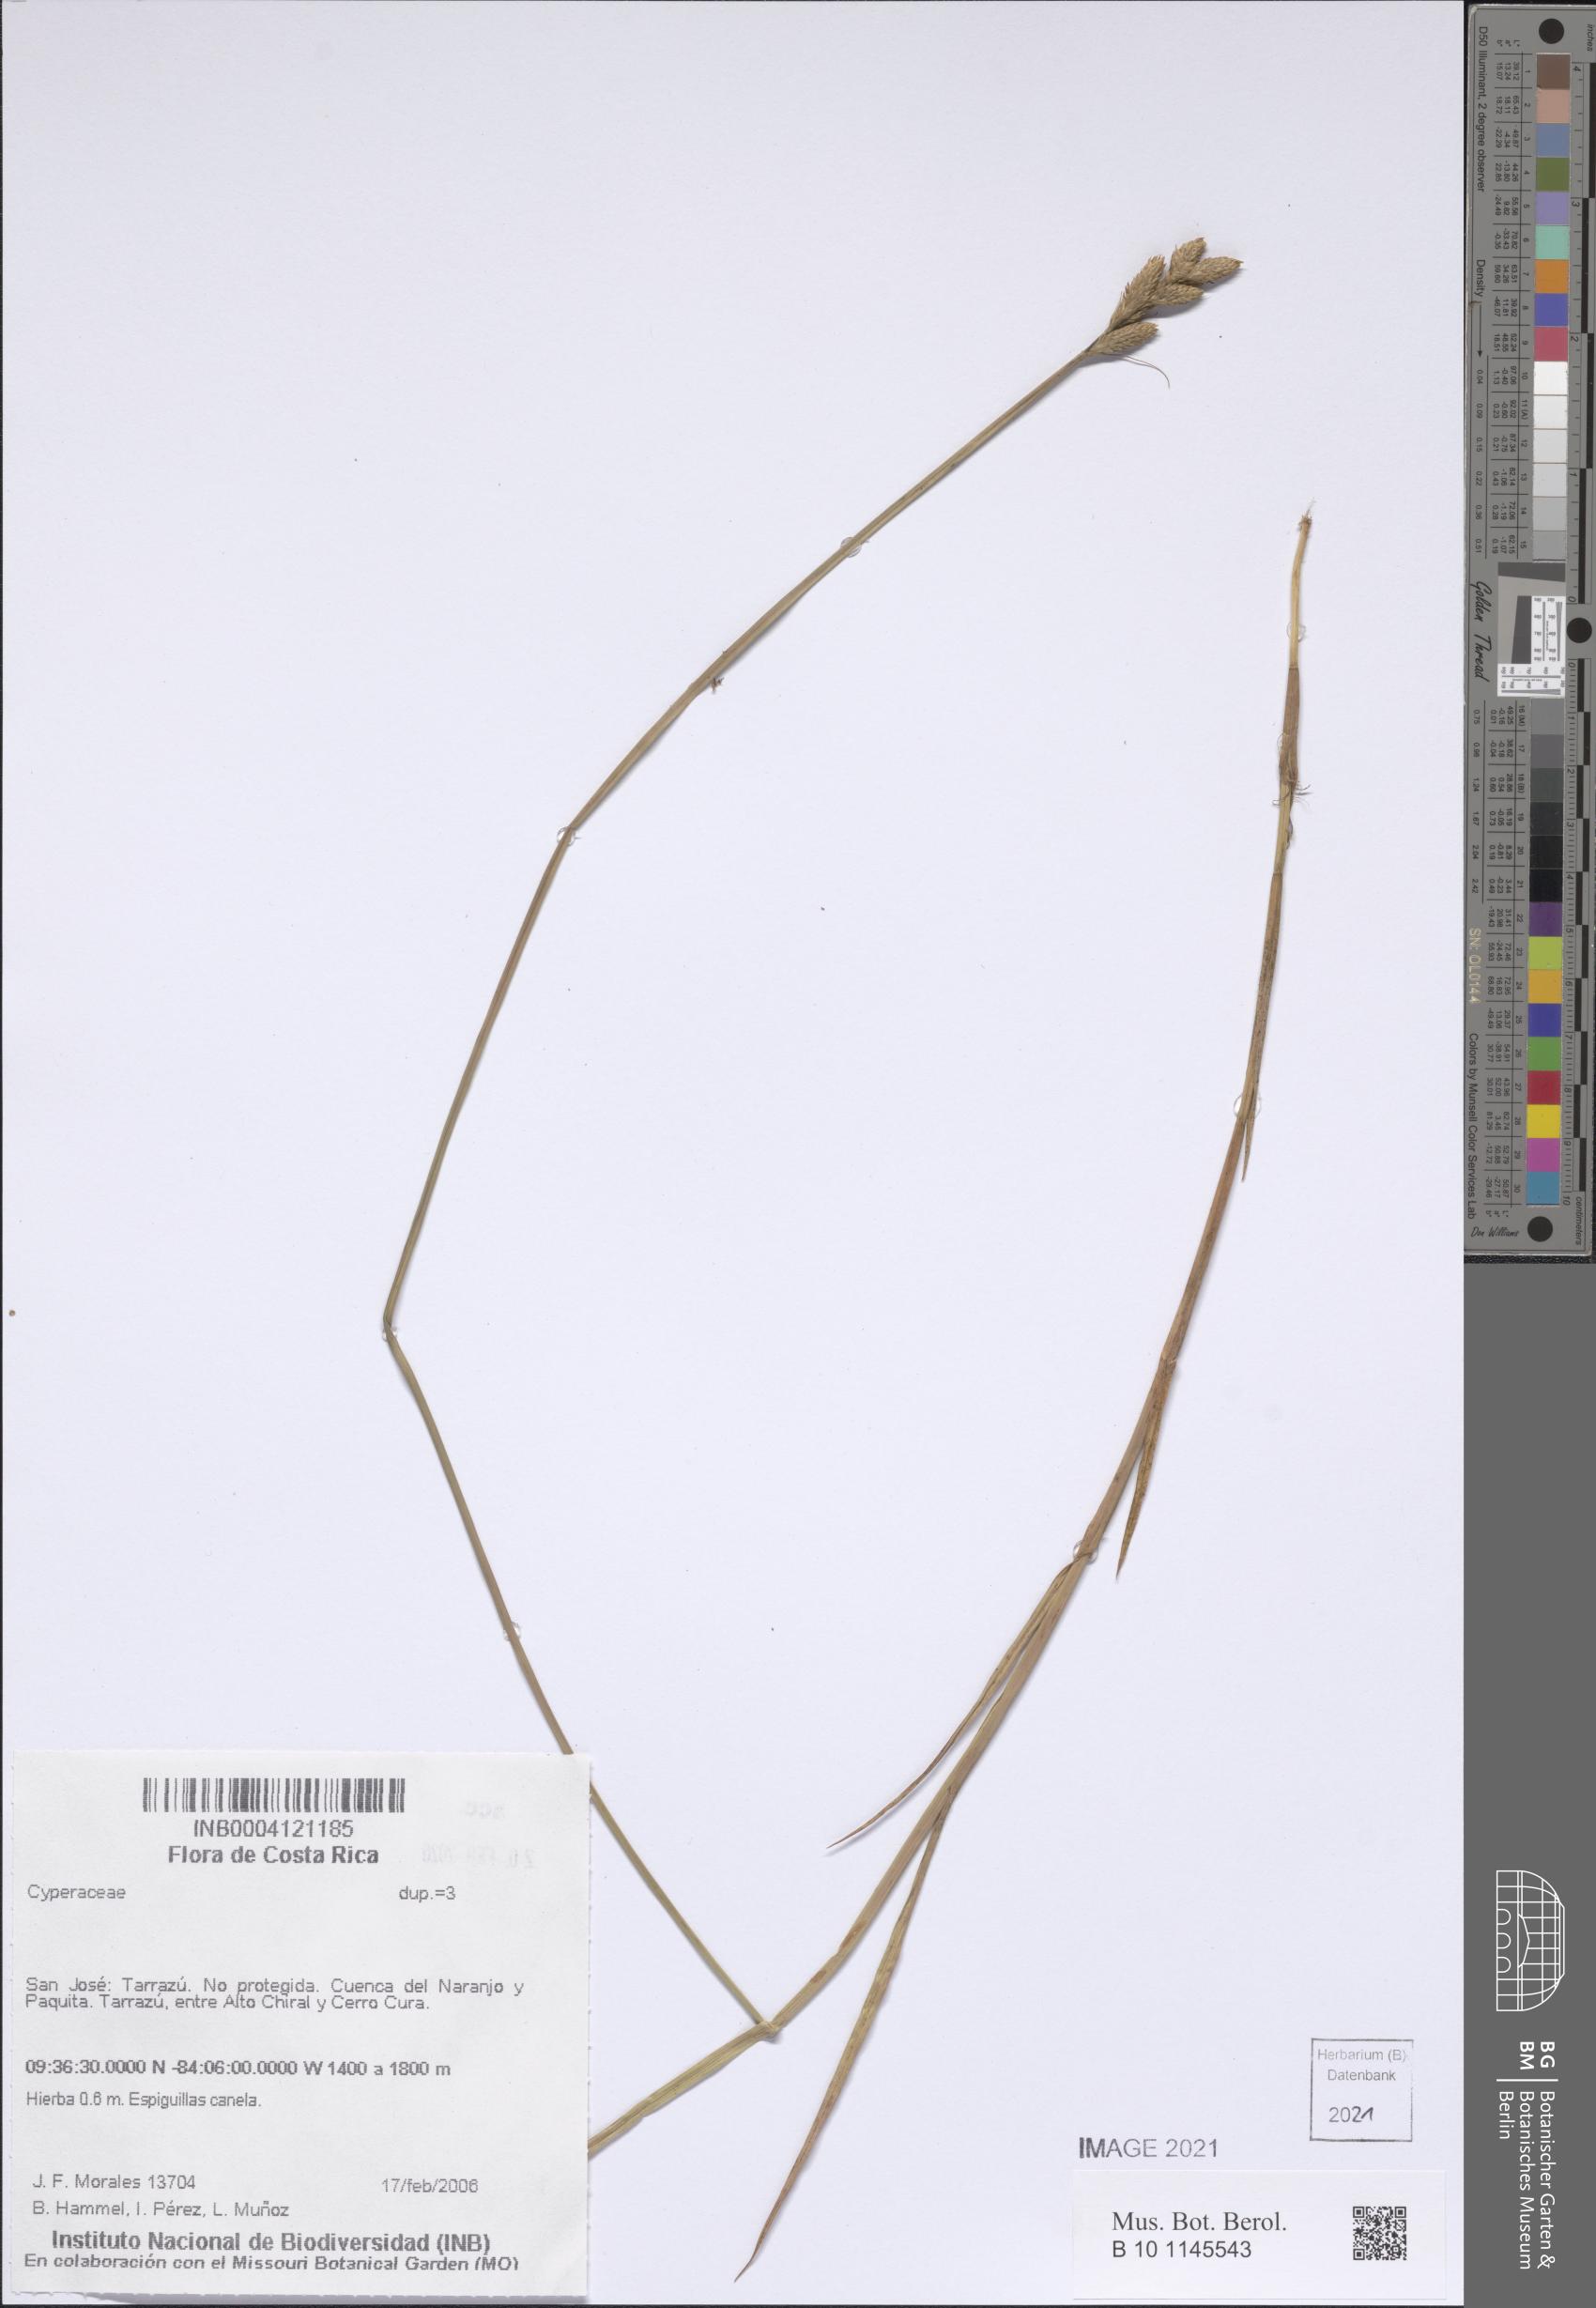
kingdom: Plantae
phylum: Tracheophyta
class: Liliopsida
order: Poales
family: Cyperaceae
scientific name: Cyperaceae
